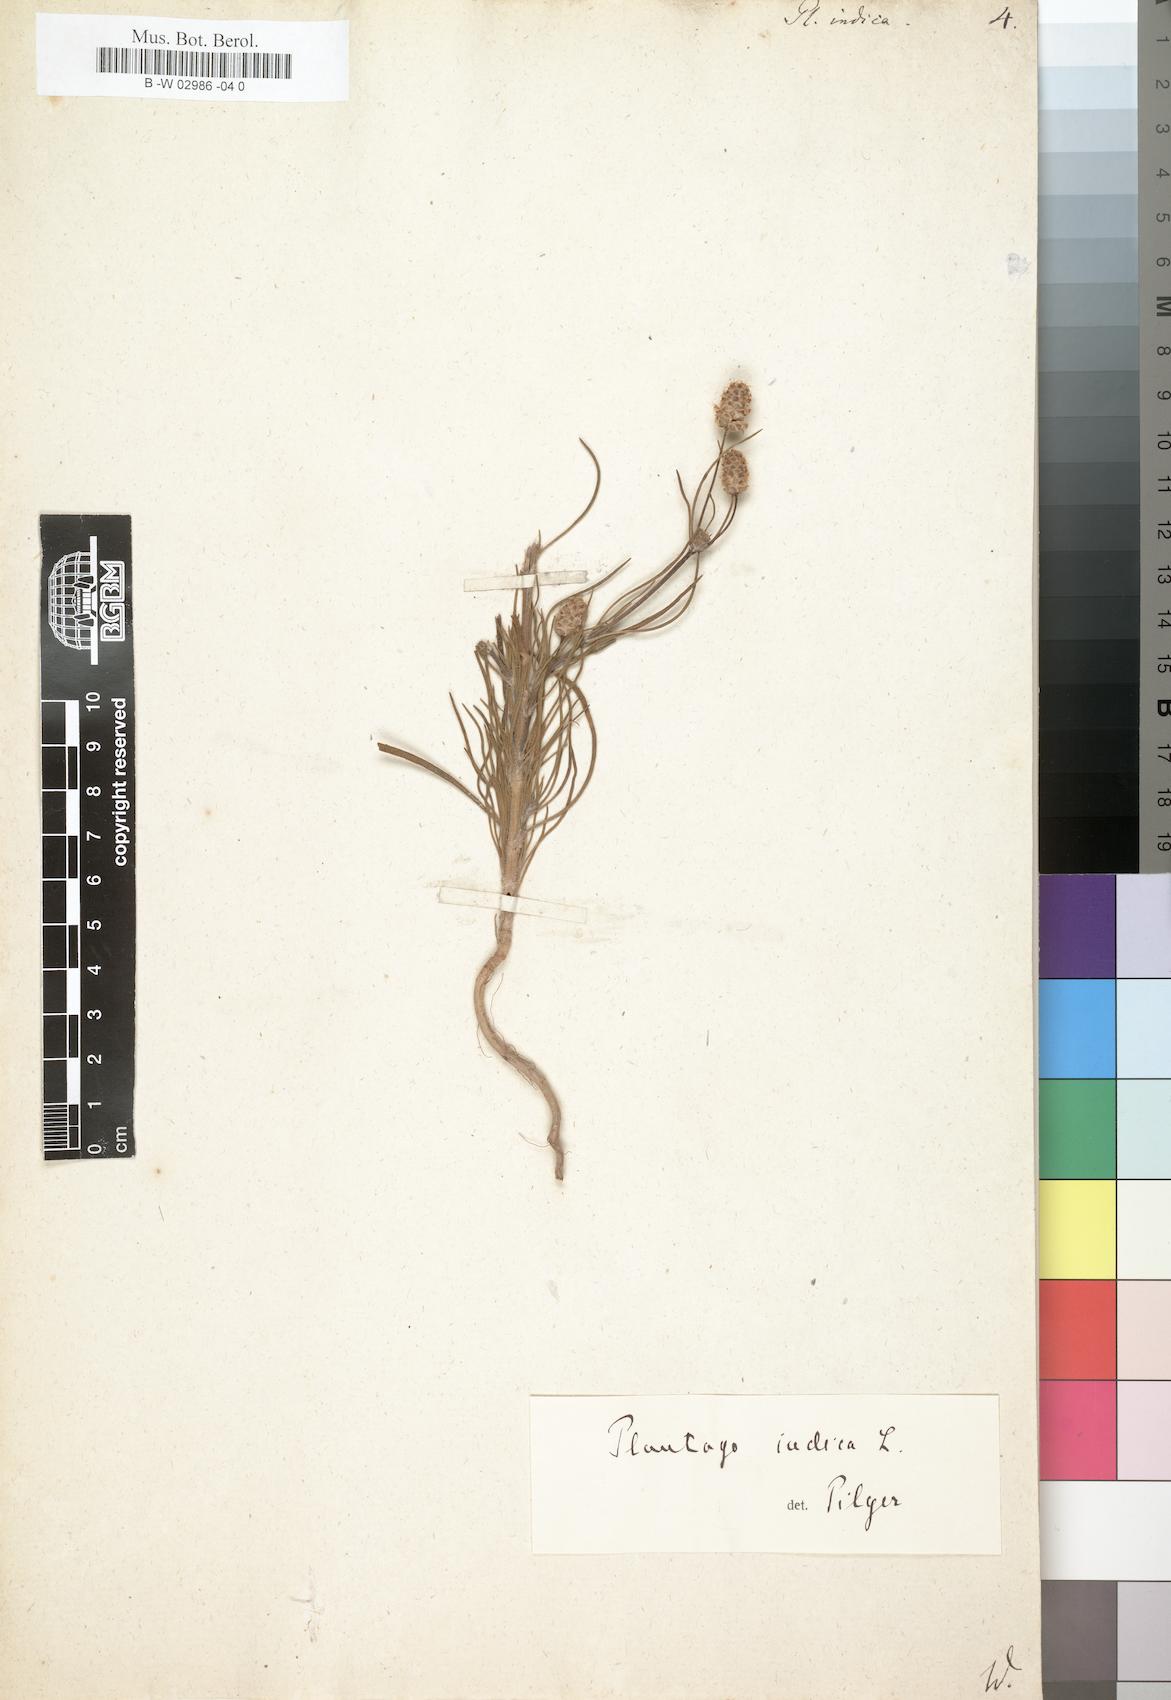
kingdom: Plantae
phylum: Tracheophyta
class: Magnoliopsida
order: Lamiales
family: Plantaginaceae
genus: Plantago
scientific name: Plantago arenaria
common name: Branched plantain
